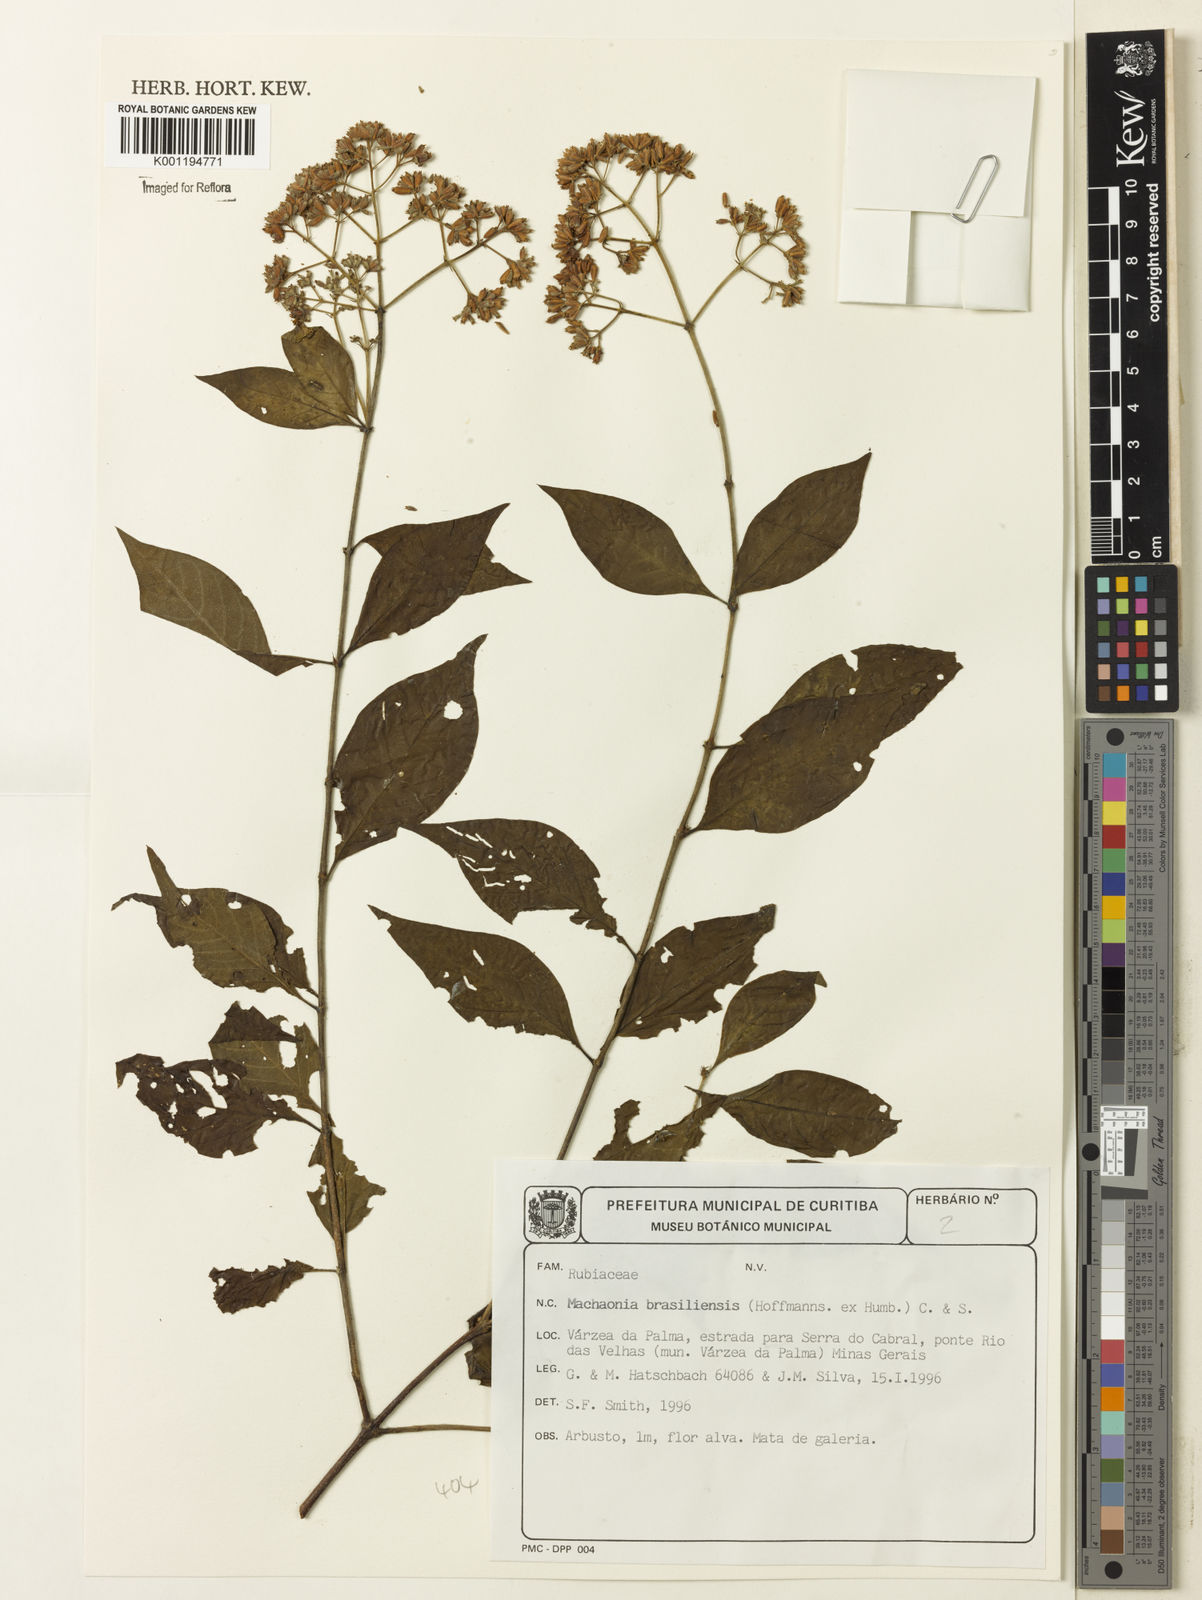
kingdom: Plantae
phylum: Tracheophyta
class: Magnoliopsida
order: Gentianales
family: Rubiaceae
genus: Machaonia
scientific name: Machaonia brasiliensis
